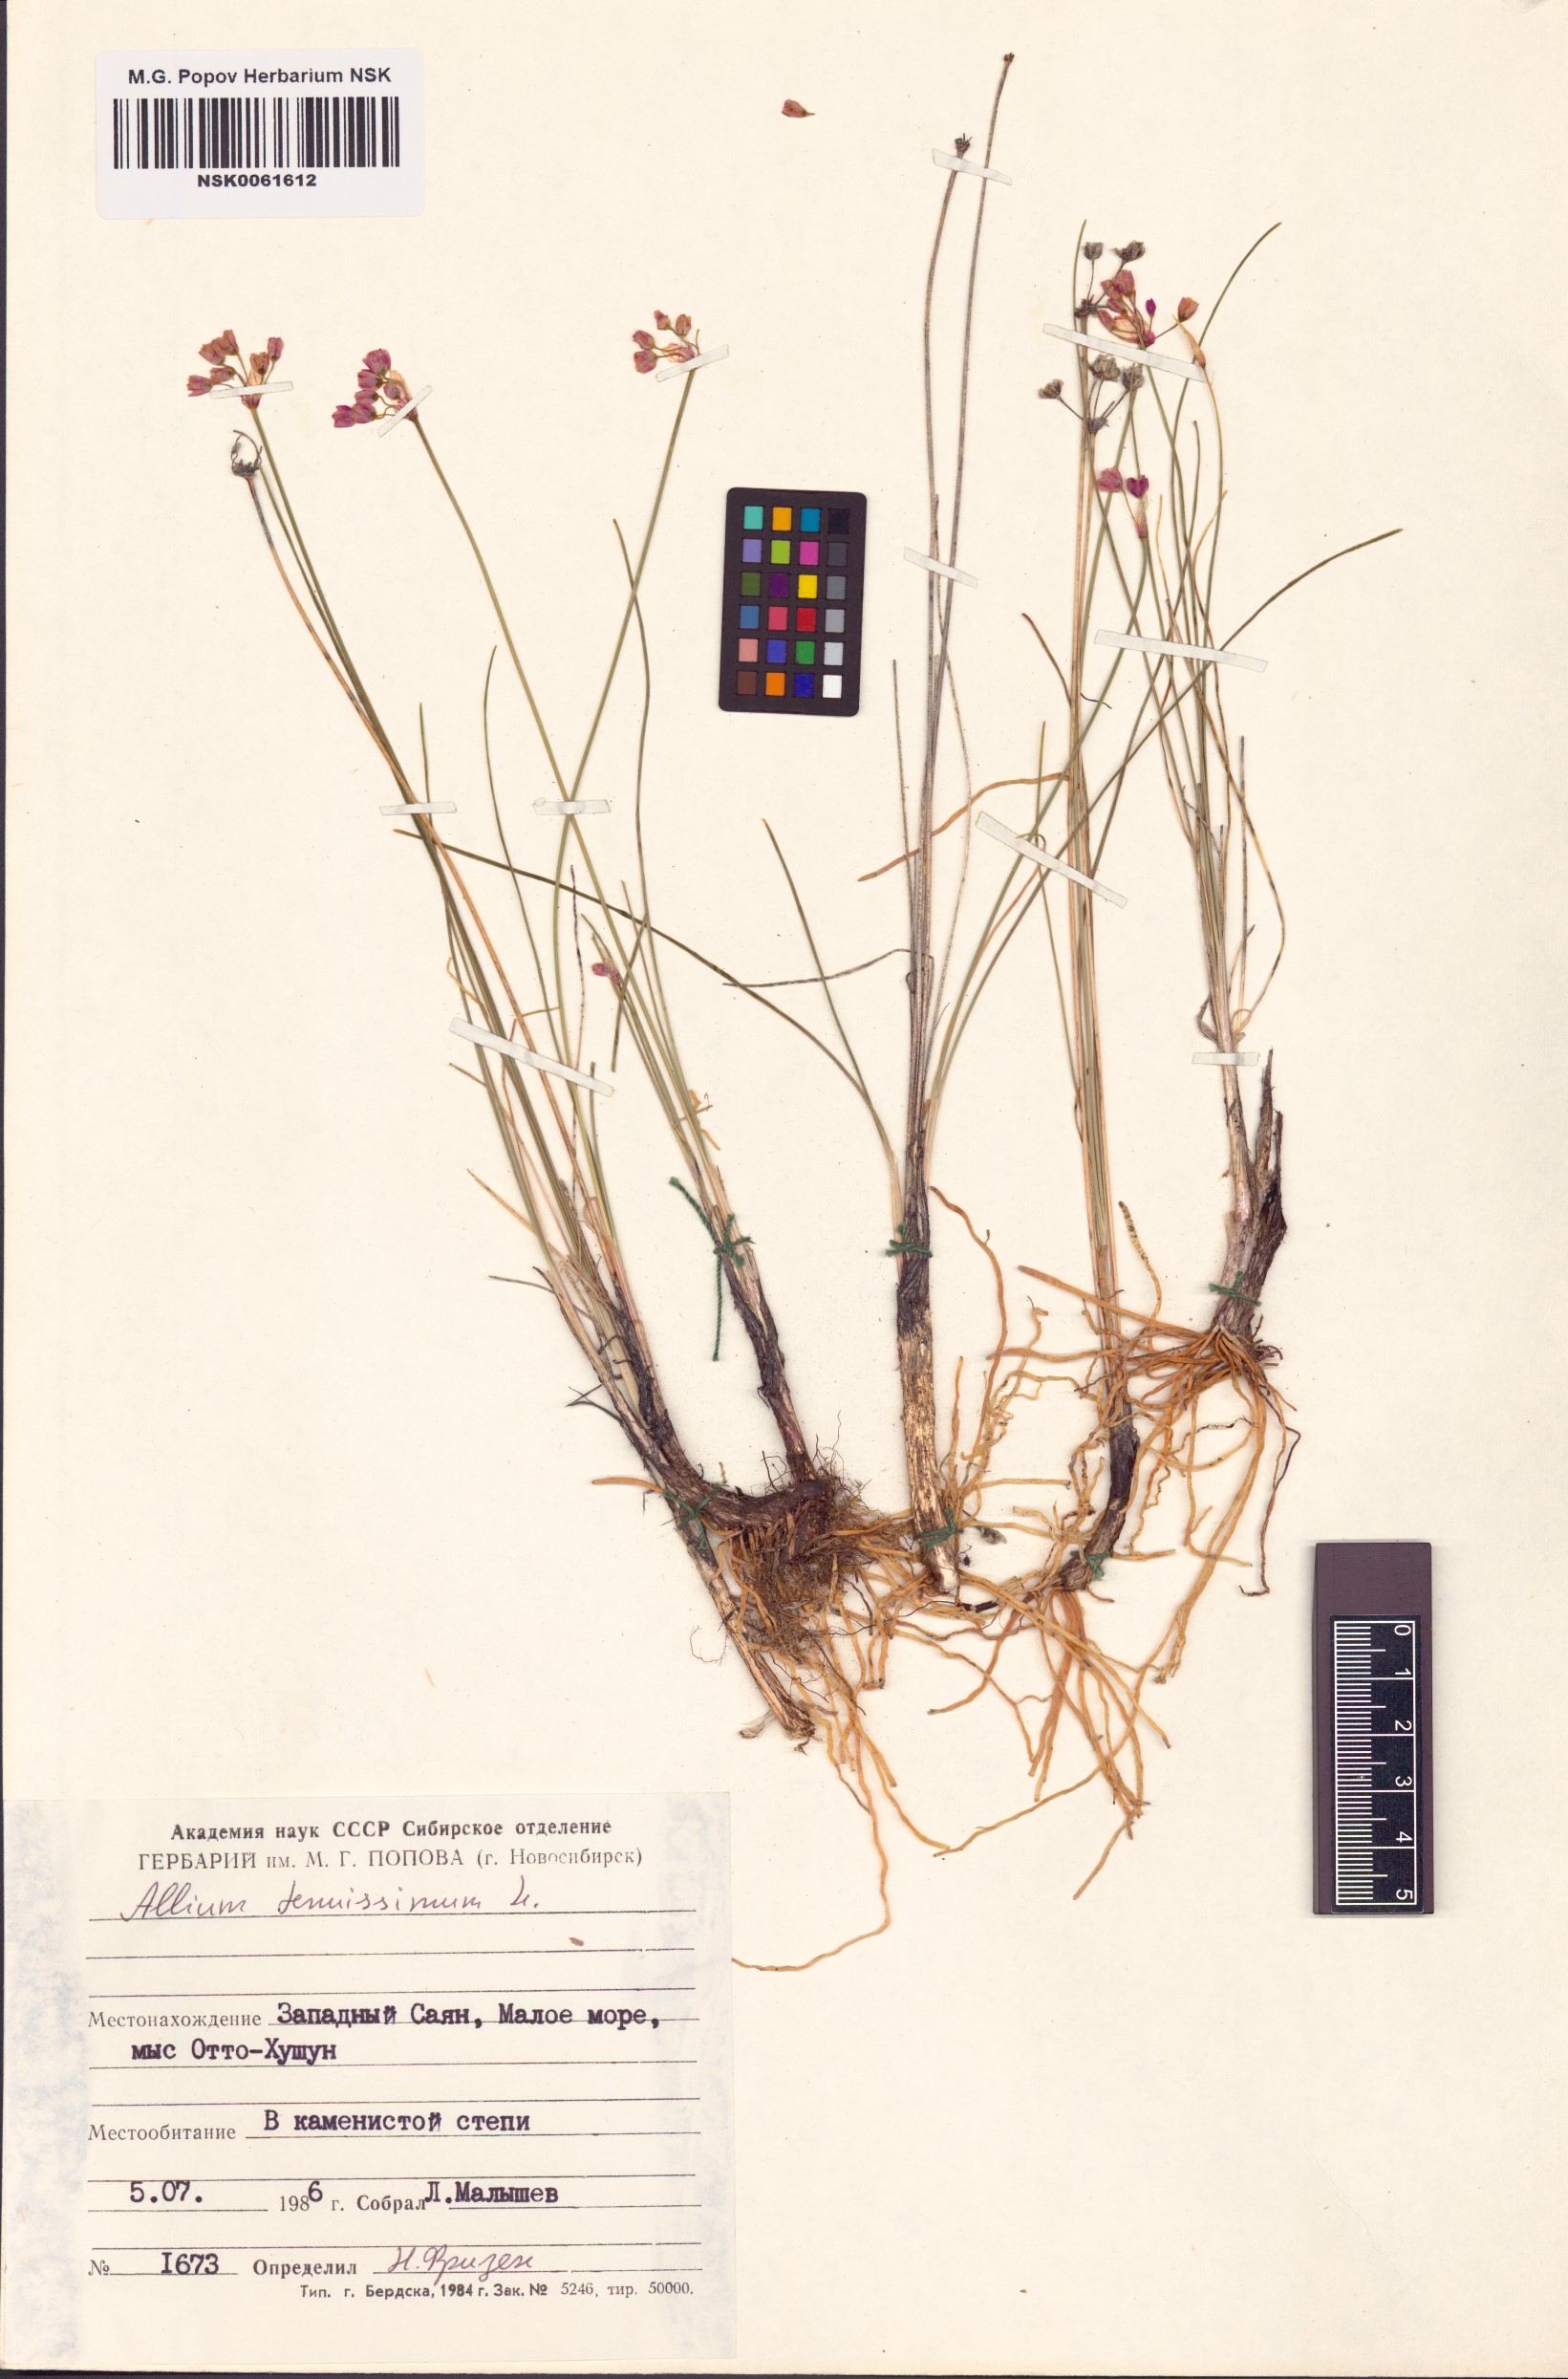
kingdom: Plantae
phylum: Tracheophyta
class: Liliopsida
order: Asparagales
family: Amaryllidaceae
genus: Allium
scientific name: Allium tenuissimum
